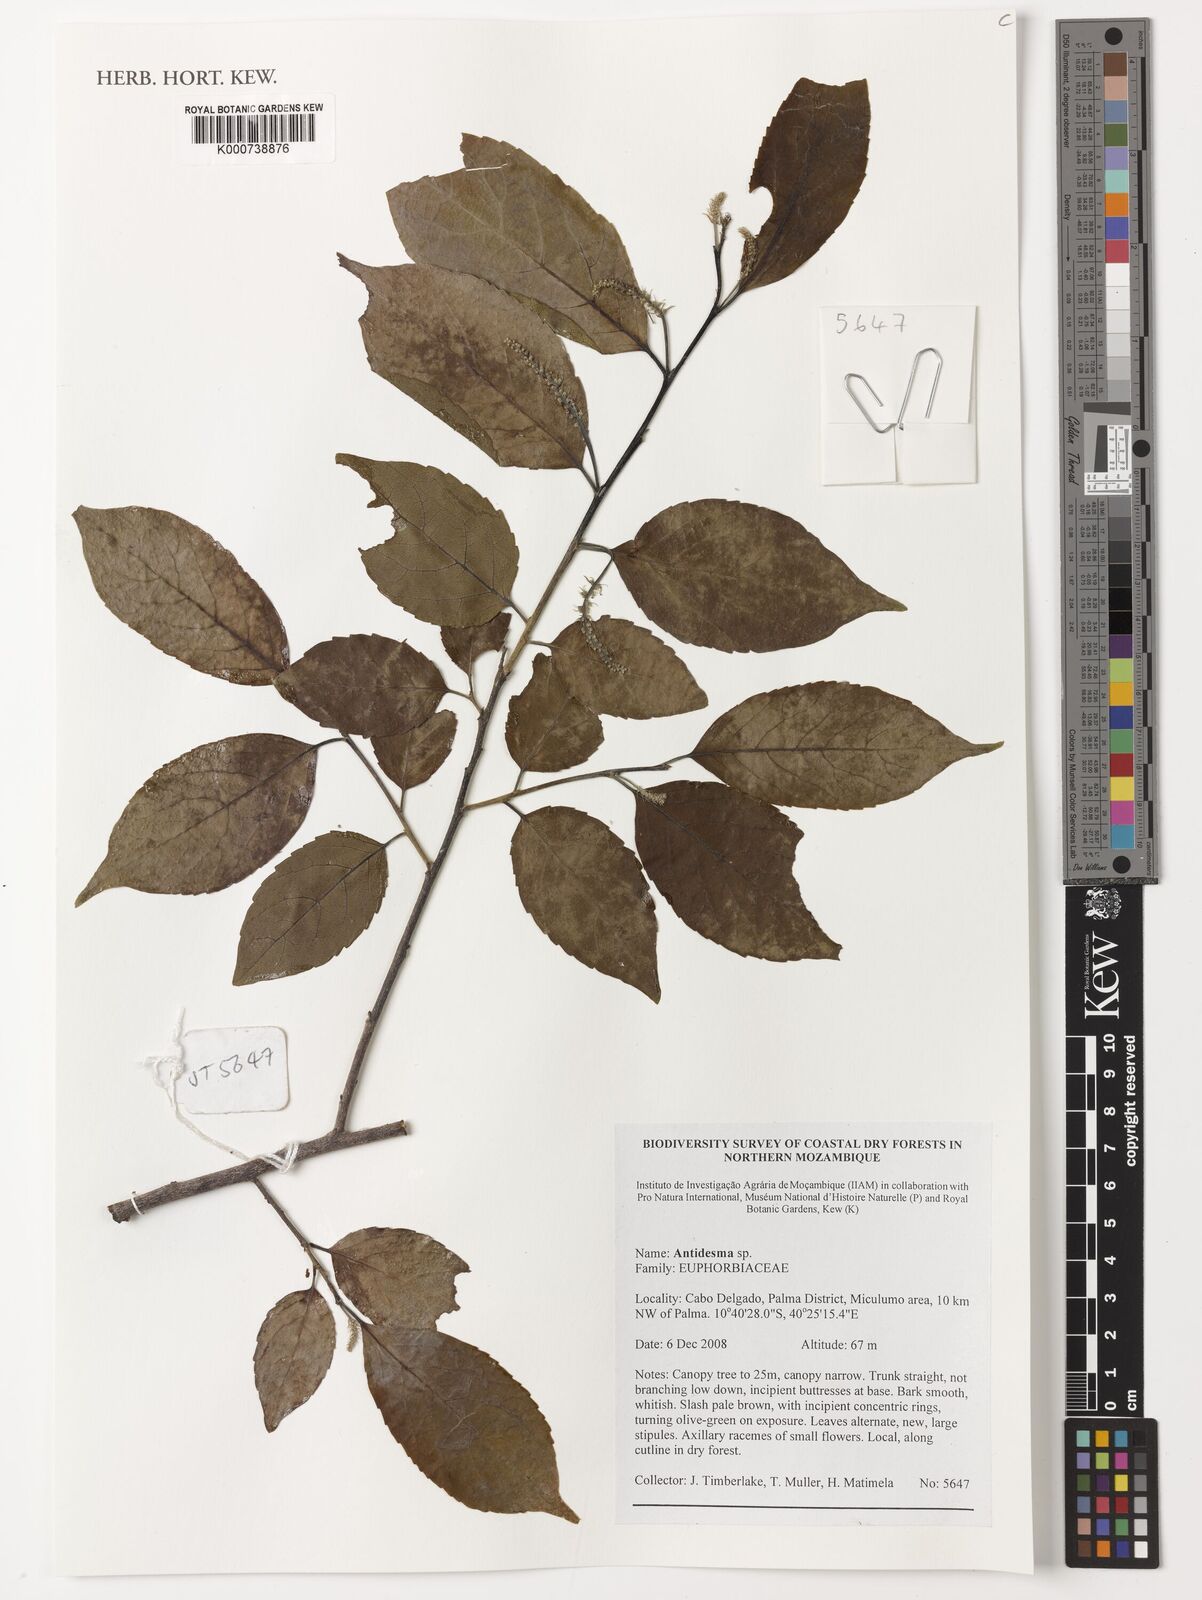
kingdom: Plantae
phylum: Tracheophyta
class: Magnoliopsida
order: Malpighiales
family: Euphorbiaceae
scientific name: Euphorbiaceae
